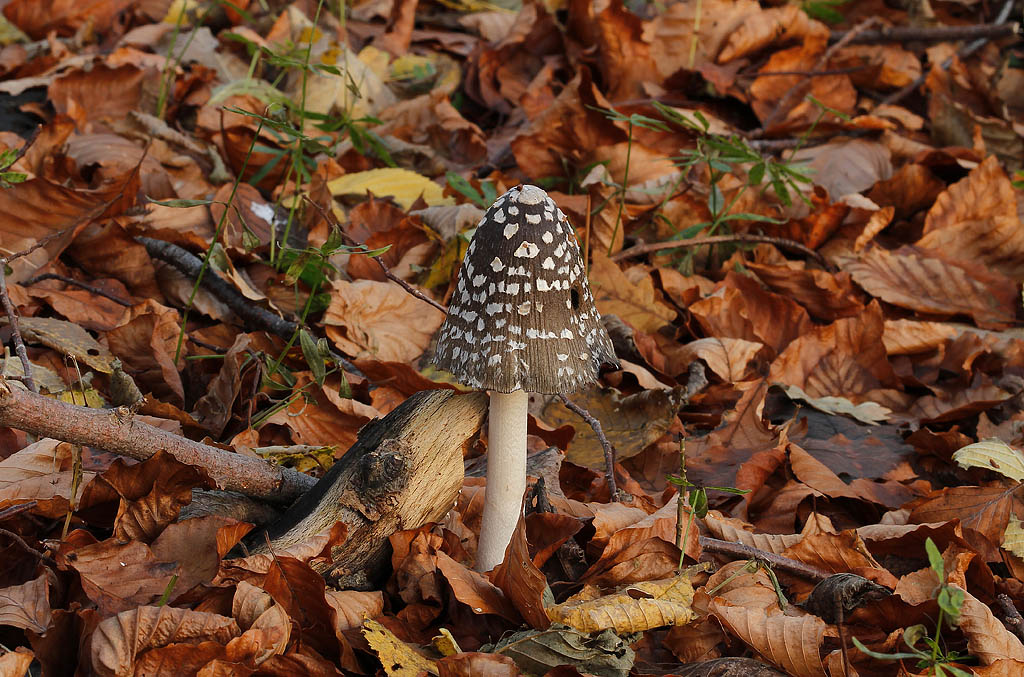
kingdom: Fungi
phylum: Basidiomycota
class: Agaricomycetes
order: Agaricales
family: Psathyrellaceae
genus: Coprinopsis
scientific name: Coprinopsis picacea
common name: skade-blækhat
